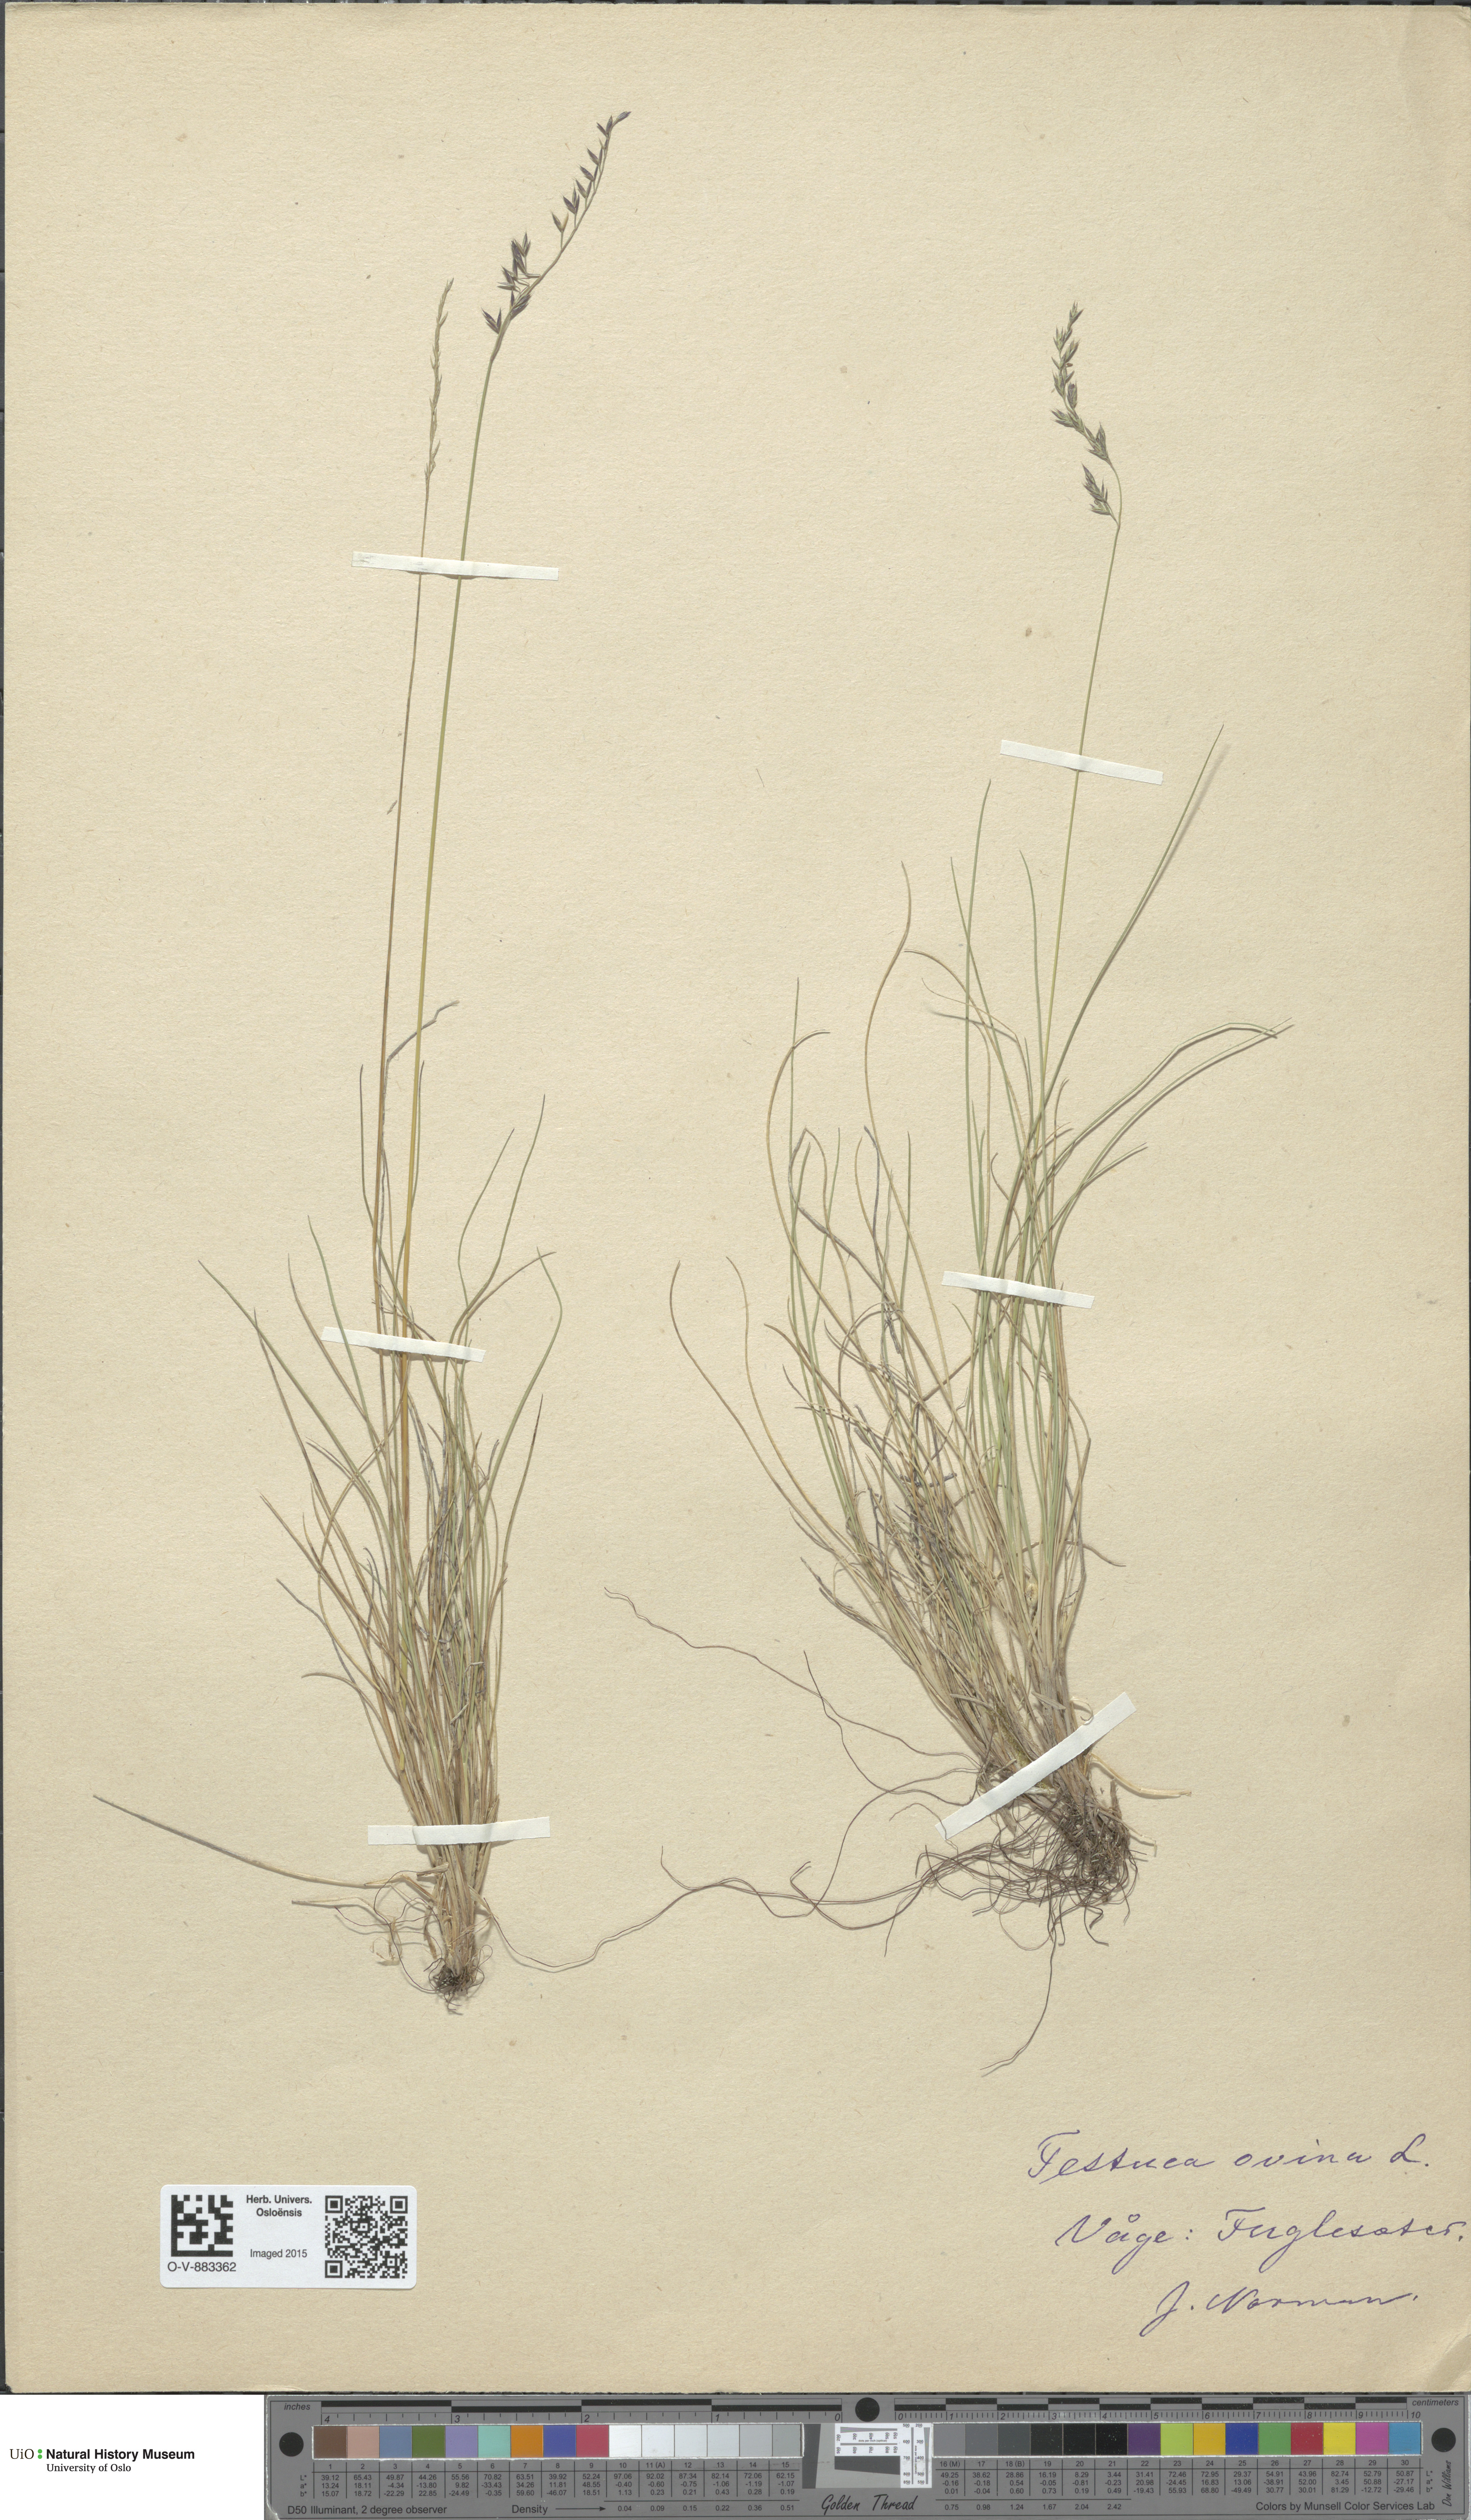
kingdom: Plantae
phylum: Tracheophyta
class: Liliopsida
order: Poales
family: Poaceae
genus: Festuca
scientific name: Festuca ovina
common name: Sheep fescue
